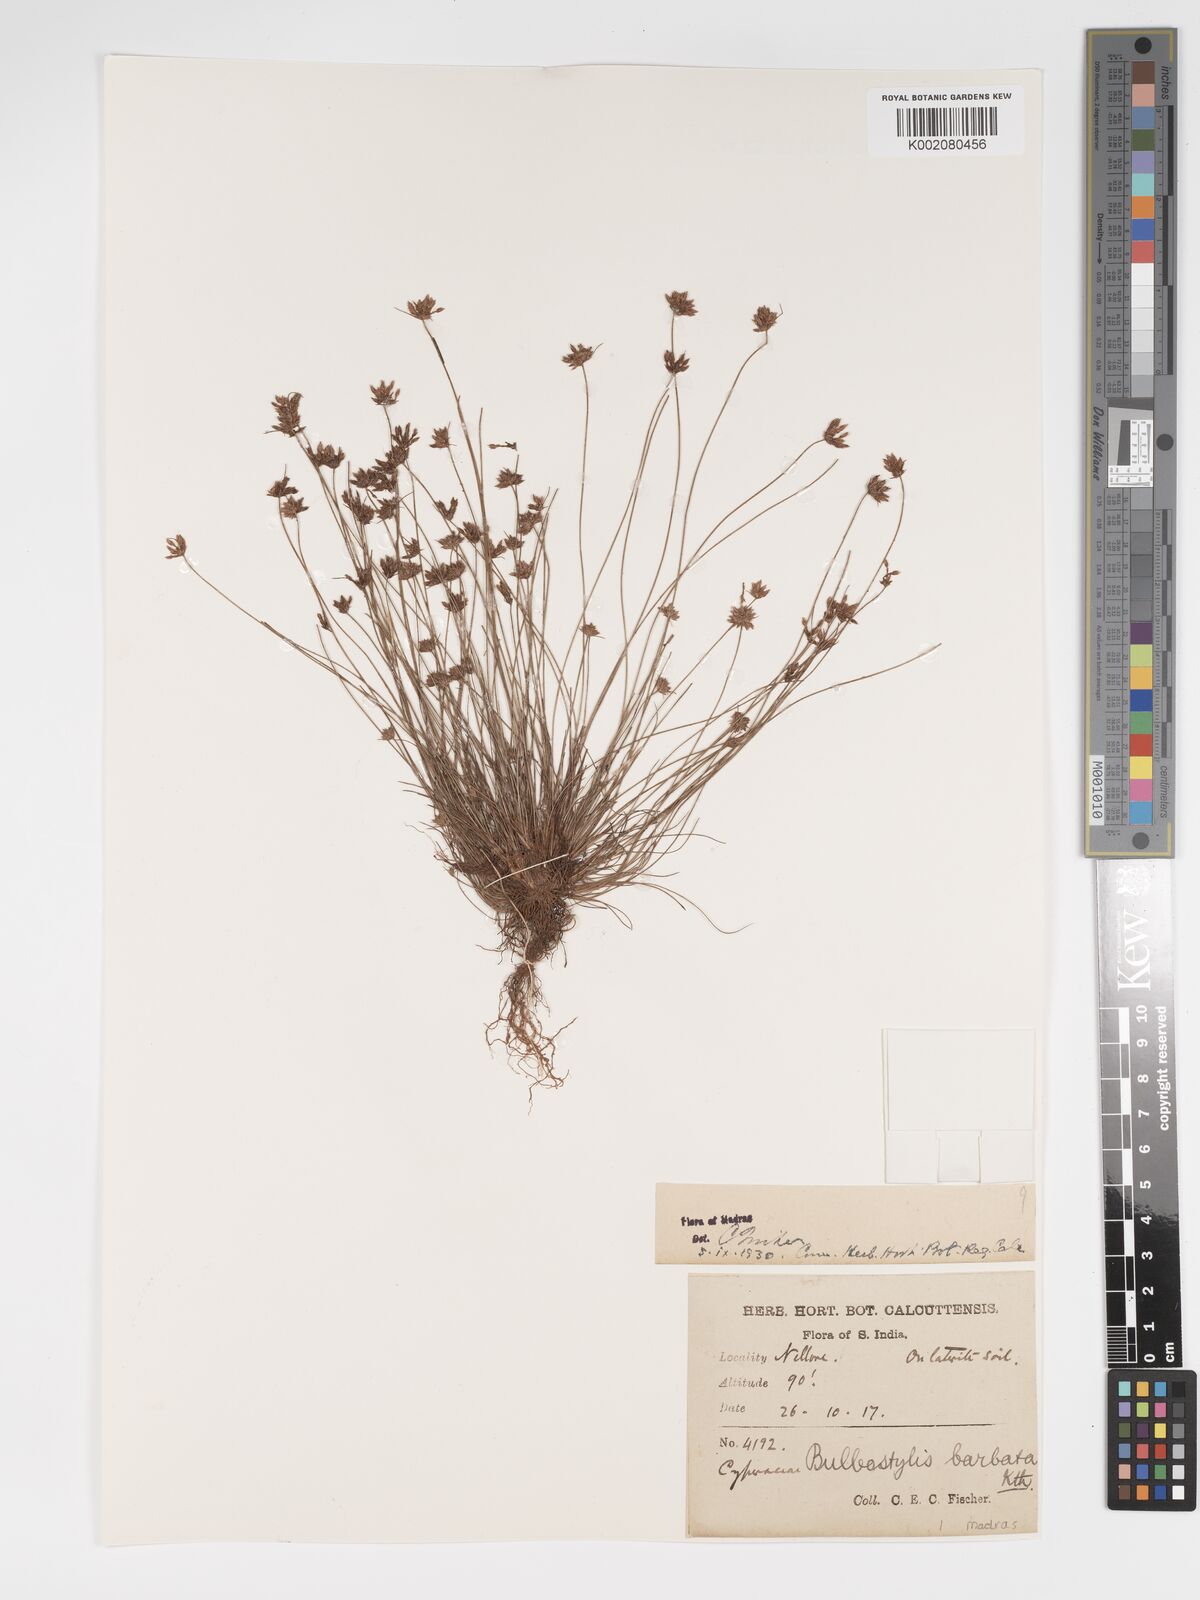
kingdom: Plantae
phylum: Tracheophyta
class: Liliopsida
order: Poales
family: Cyperaceae
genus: Bulbostylis
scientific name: Bulbostylis barbata
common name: Watergrass
